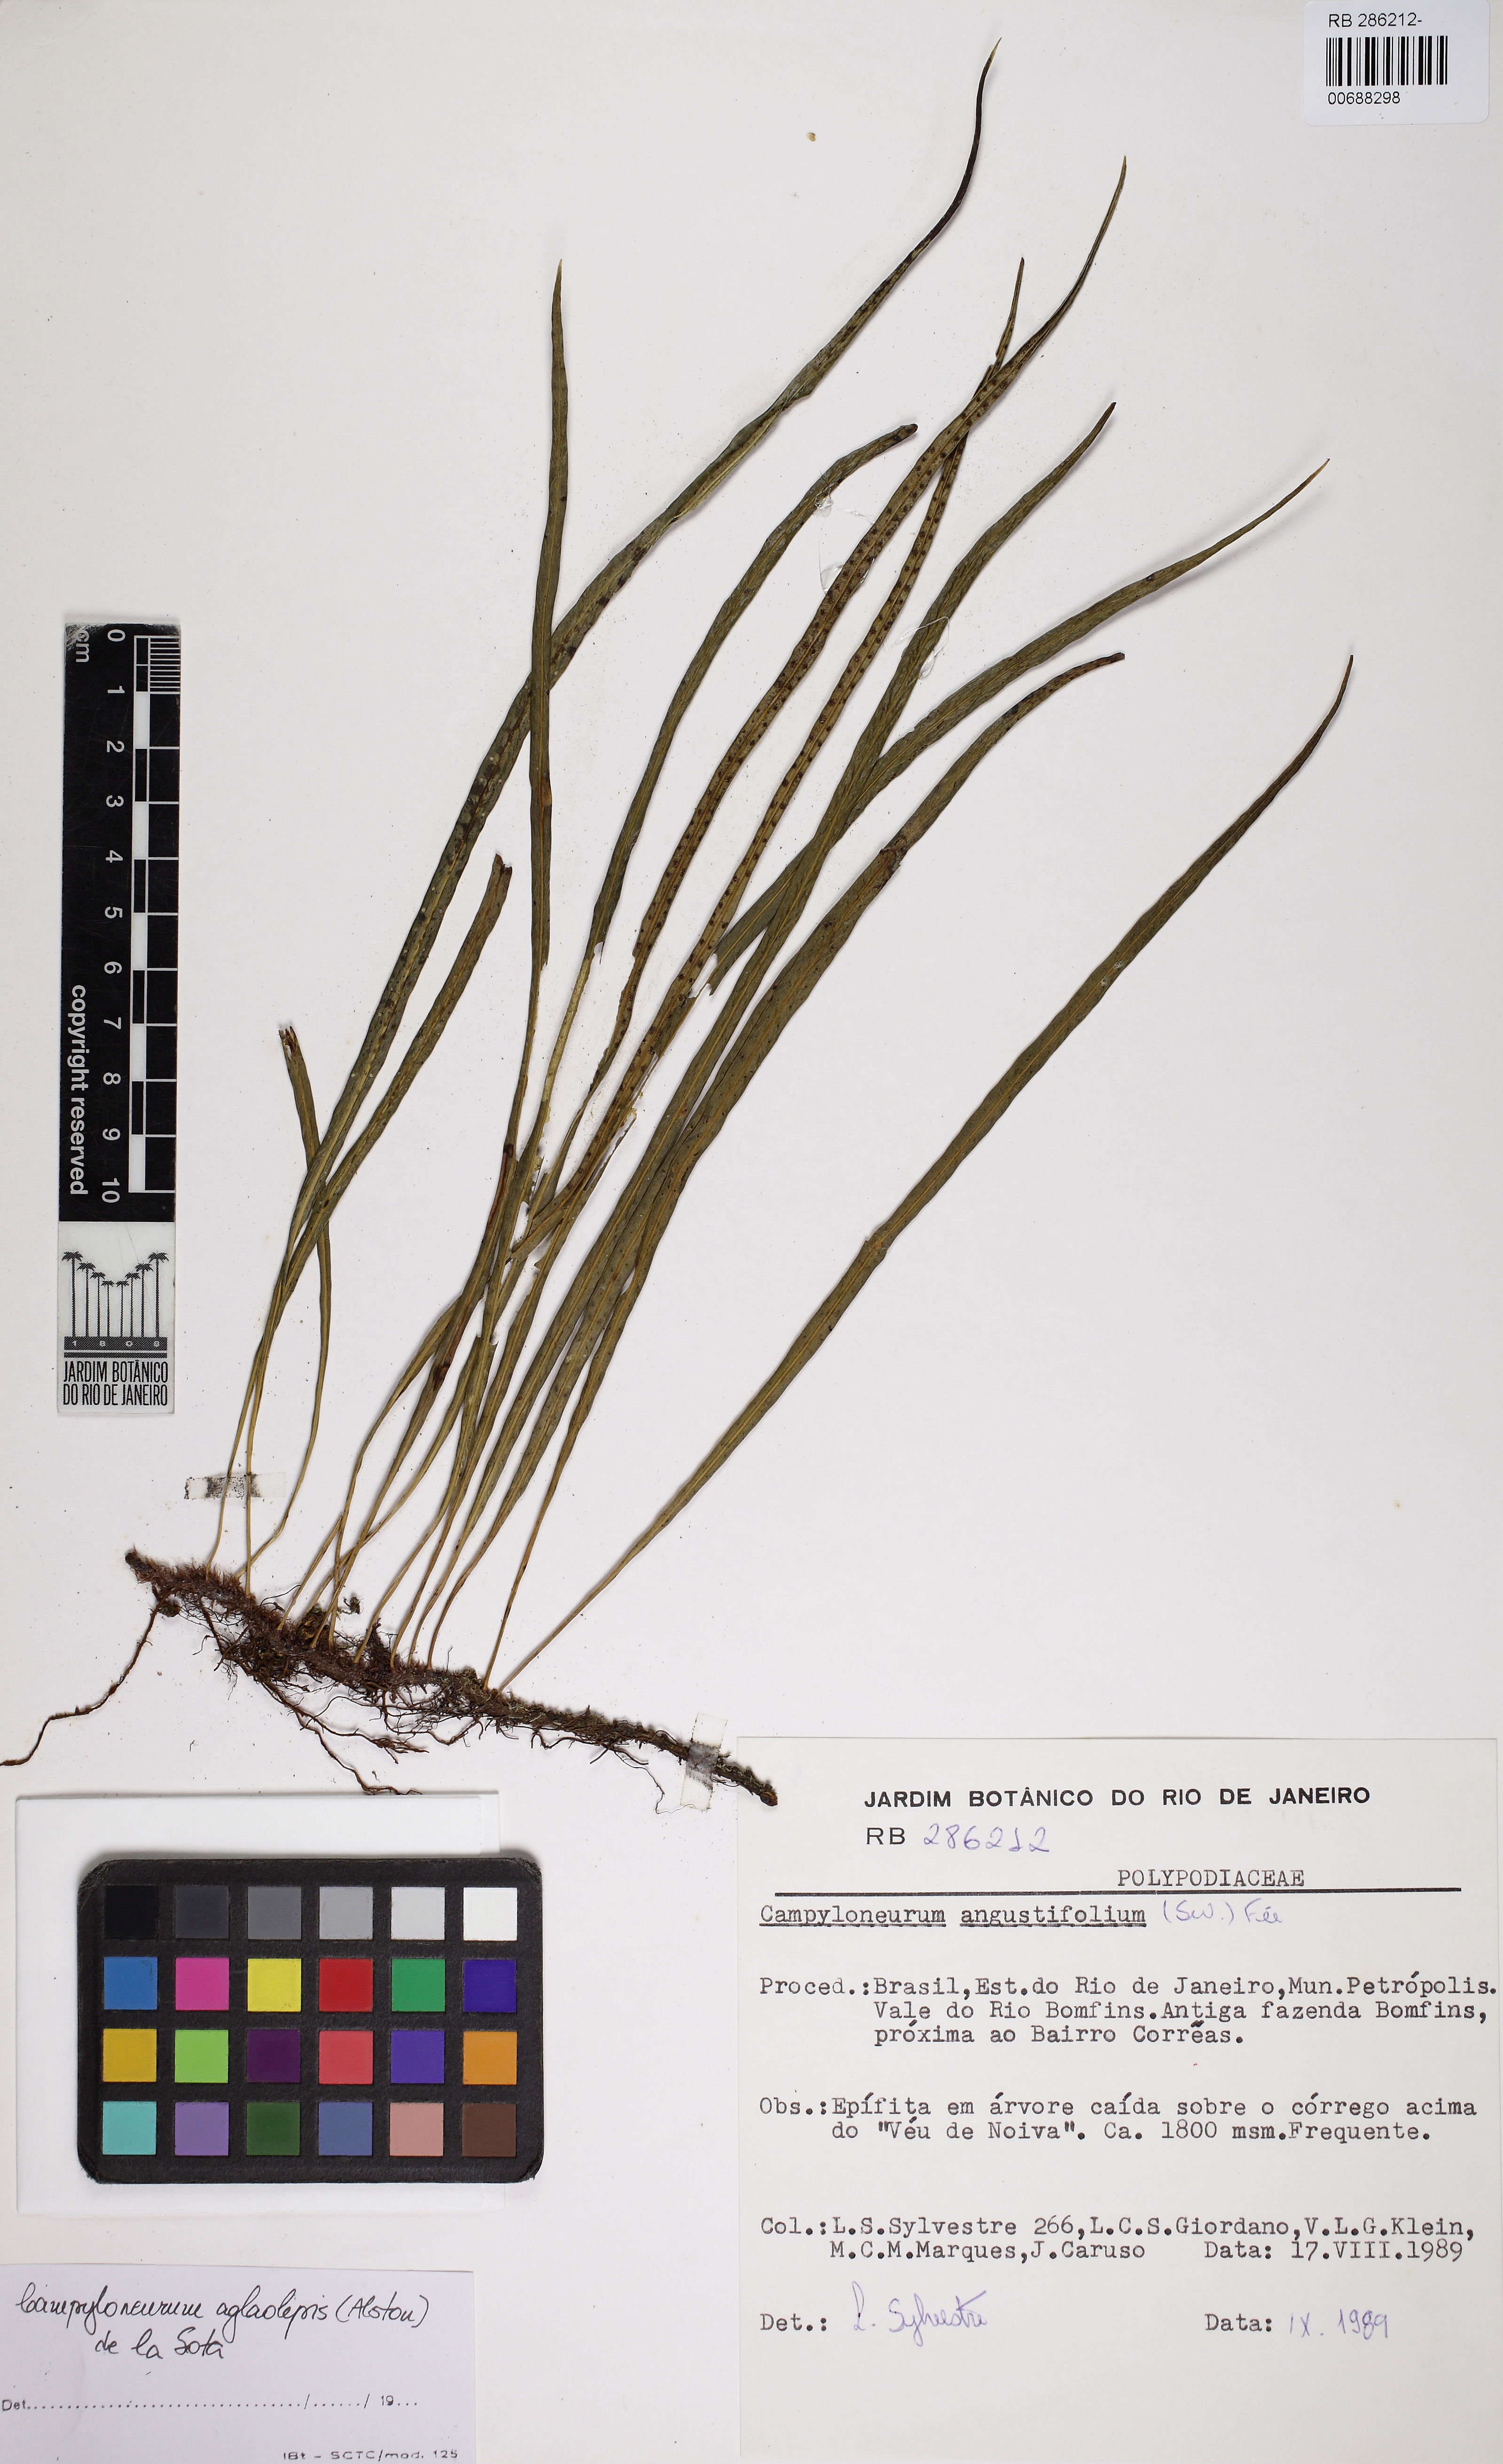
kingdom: Plantae
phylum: Tracheophyta
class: Polypodiopsida
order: Polypodiales
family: Polypodiaceae
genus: Campyloneurum
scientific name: Campyloneurum aglaolepis
